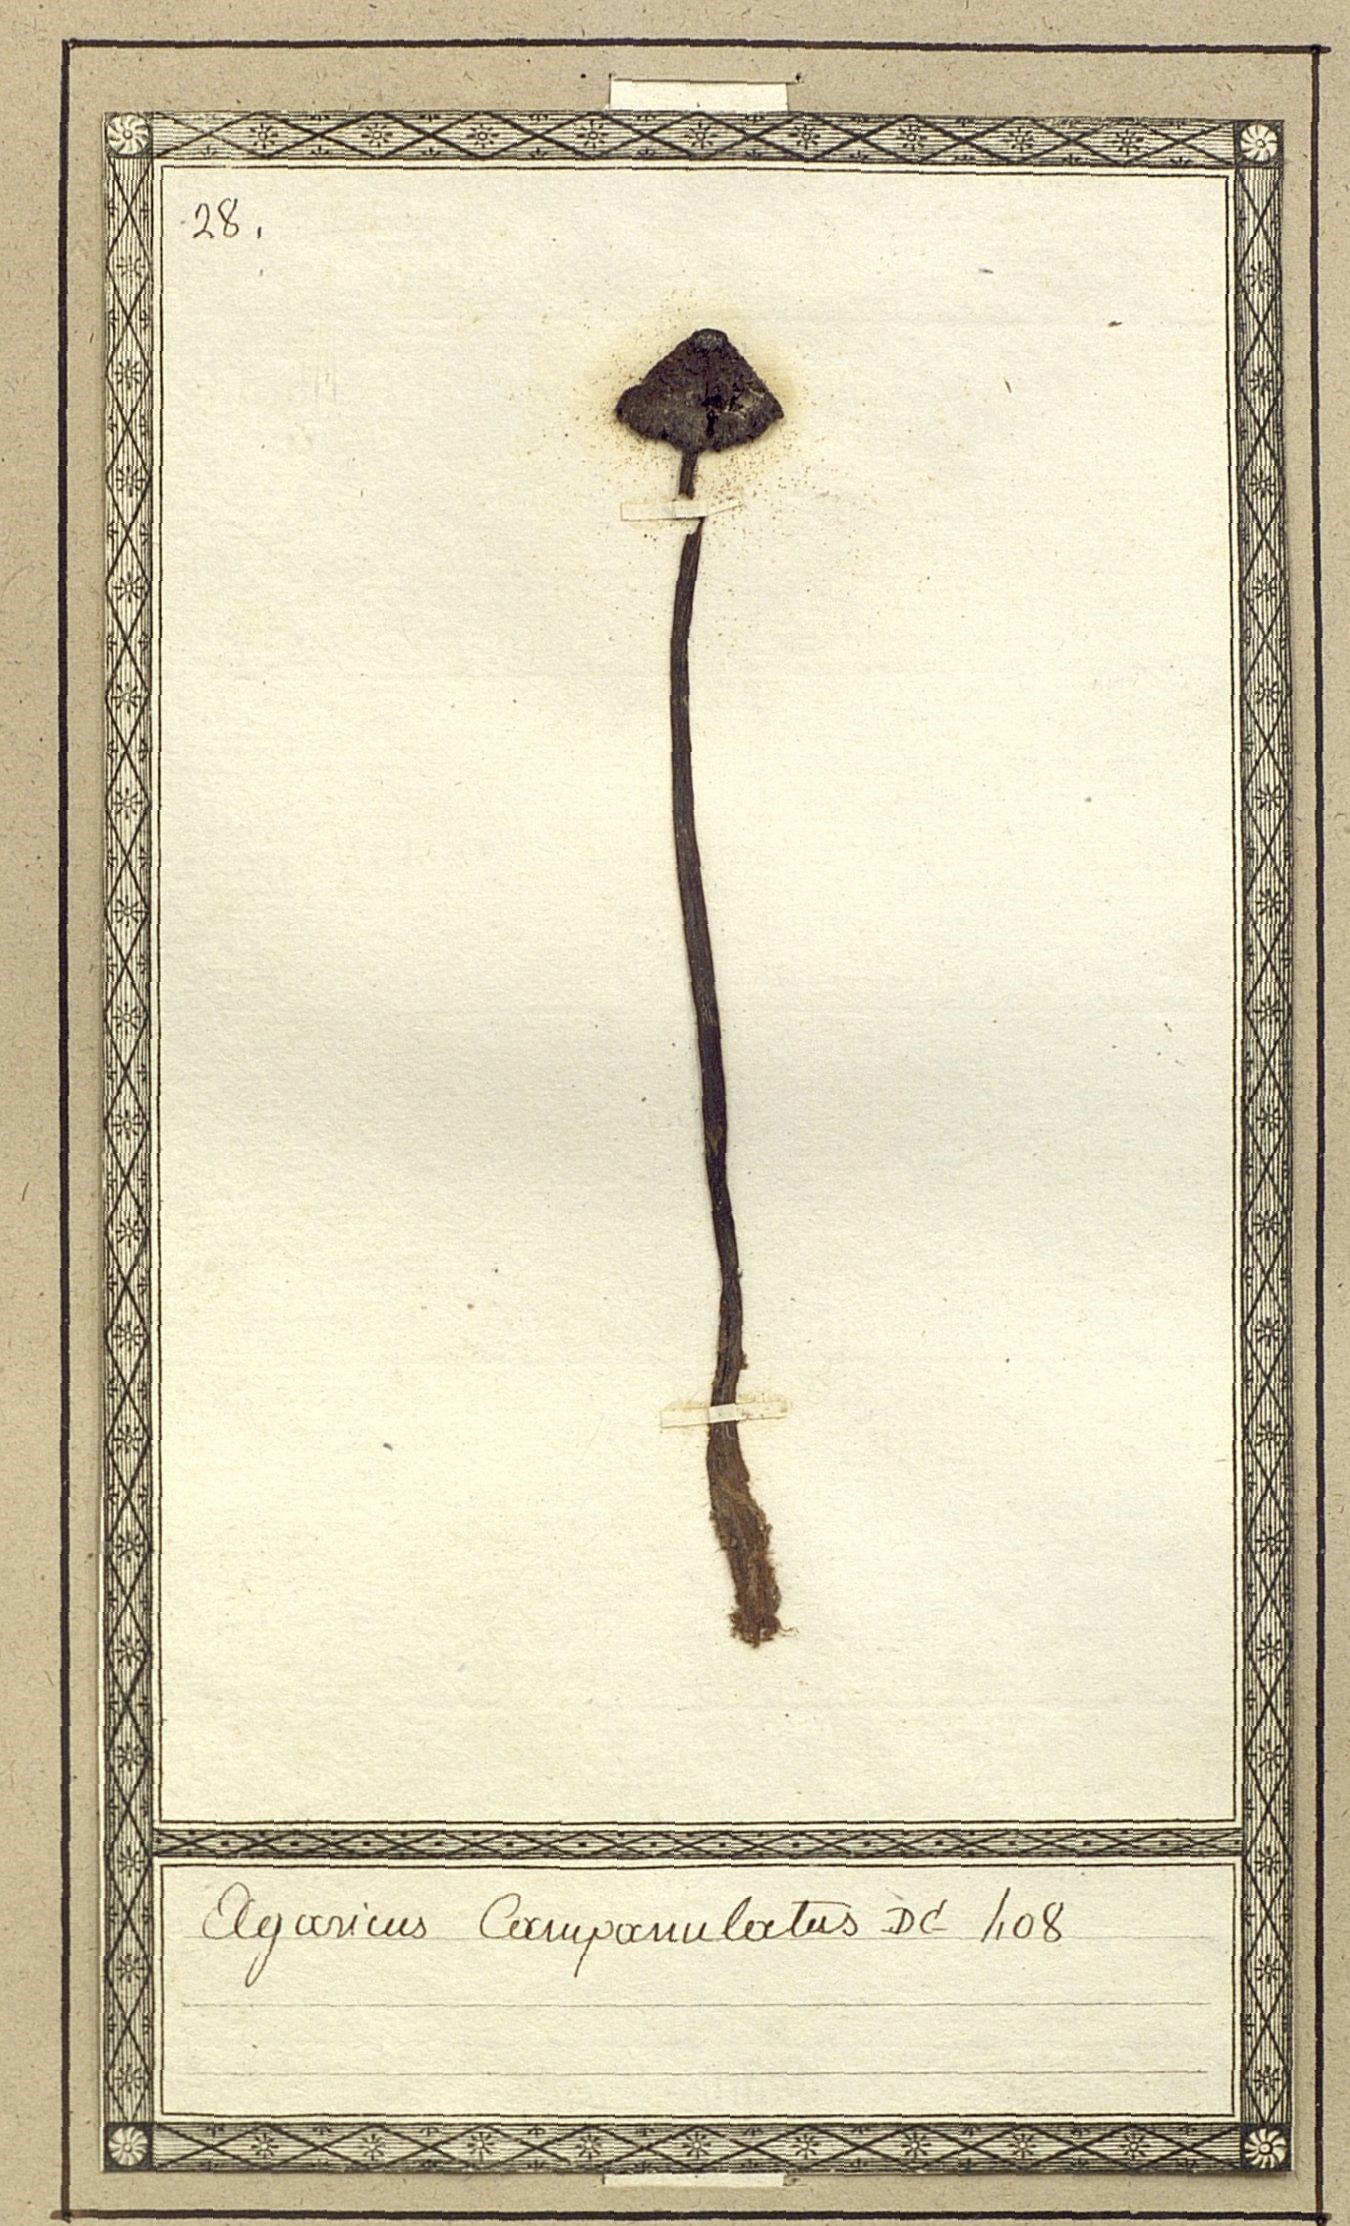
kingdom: Fungi
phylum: Basidiomycota
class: Agaricomycetes
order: Agaricales
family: Agaricaceae
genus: Agaricus
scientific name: Agaricus campanulatus
